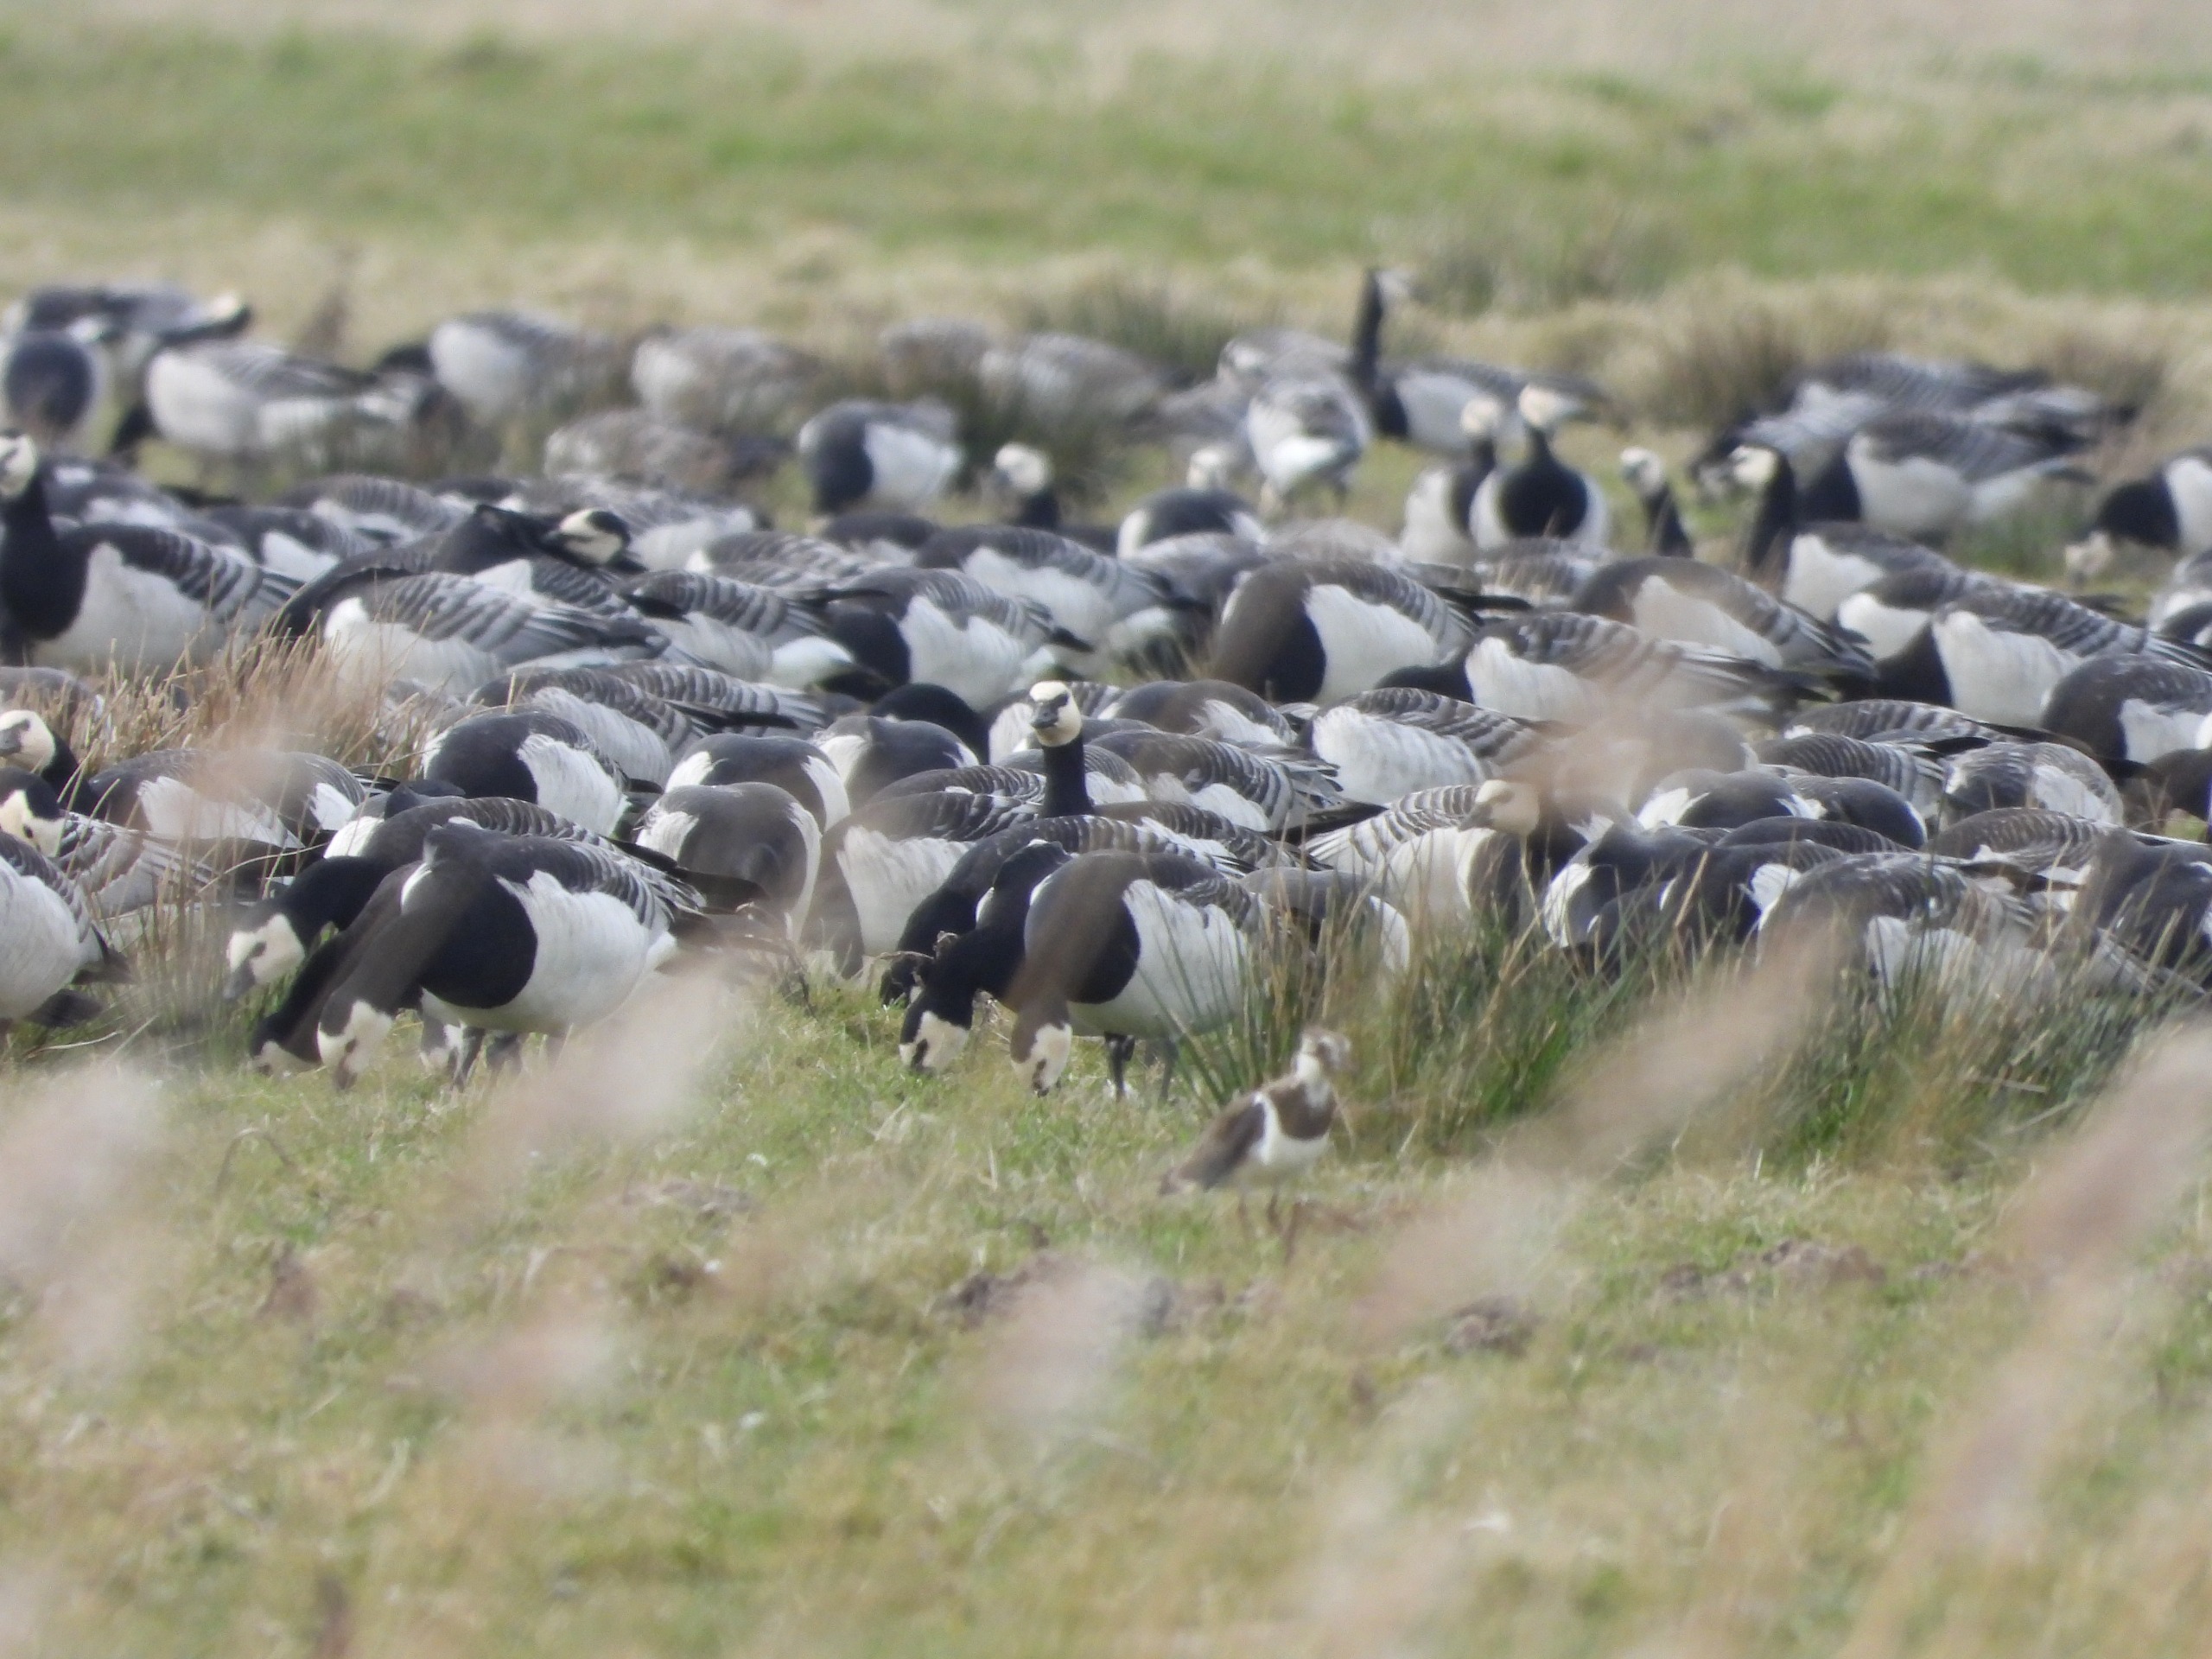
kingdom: Animalia
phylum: Chordata
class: Aves
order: Anseriformes
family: Anatidae
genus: Branta
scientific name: Branta leucopsis
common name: Bramgås
